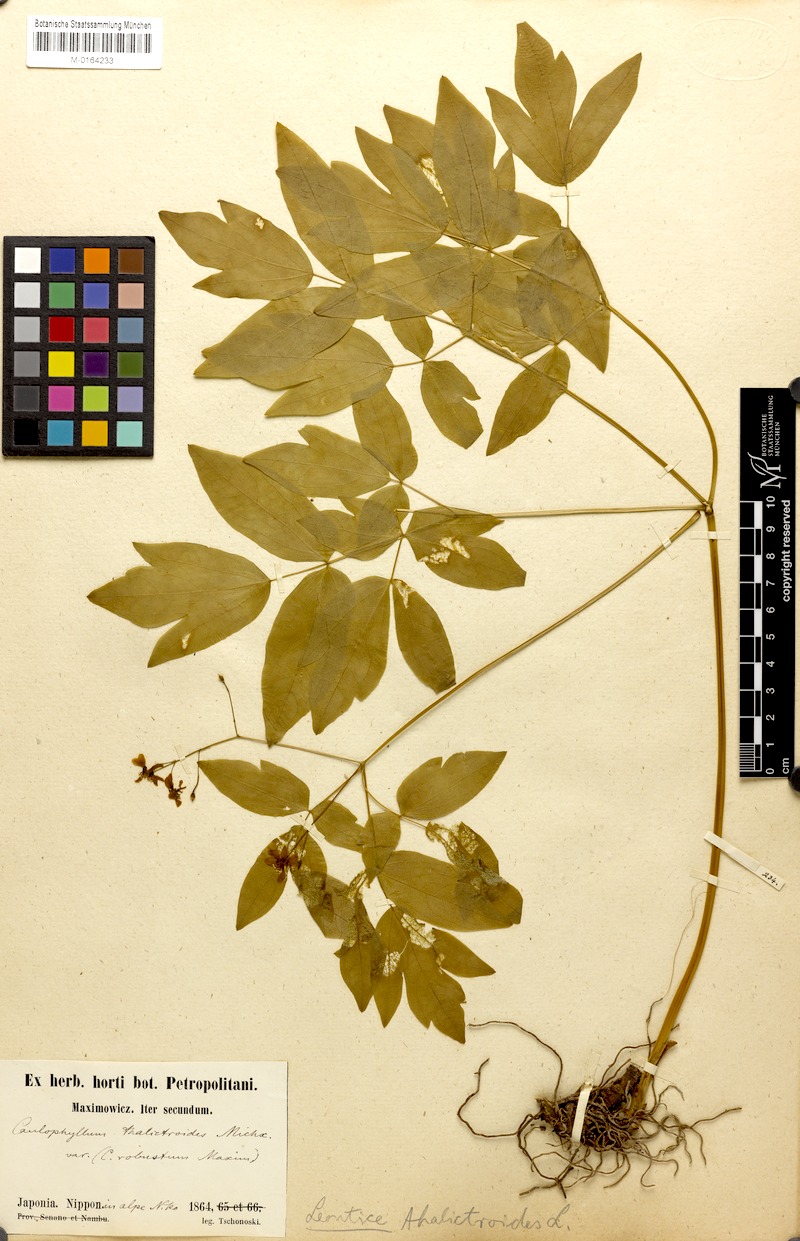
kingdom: Plantae
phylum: Tracheophyta
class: Magnoliopsida
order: Ranunculales
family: Berberidaceae
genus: Caulophyllum
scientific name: Caulophyllum thalictroides
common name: Blue cohosh
